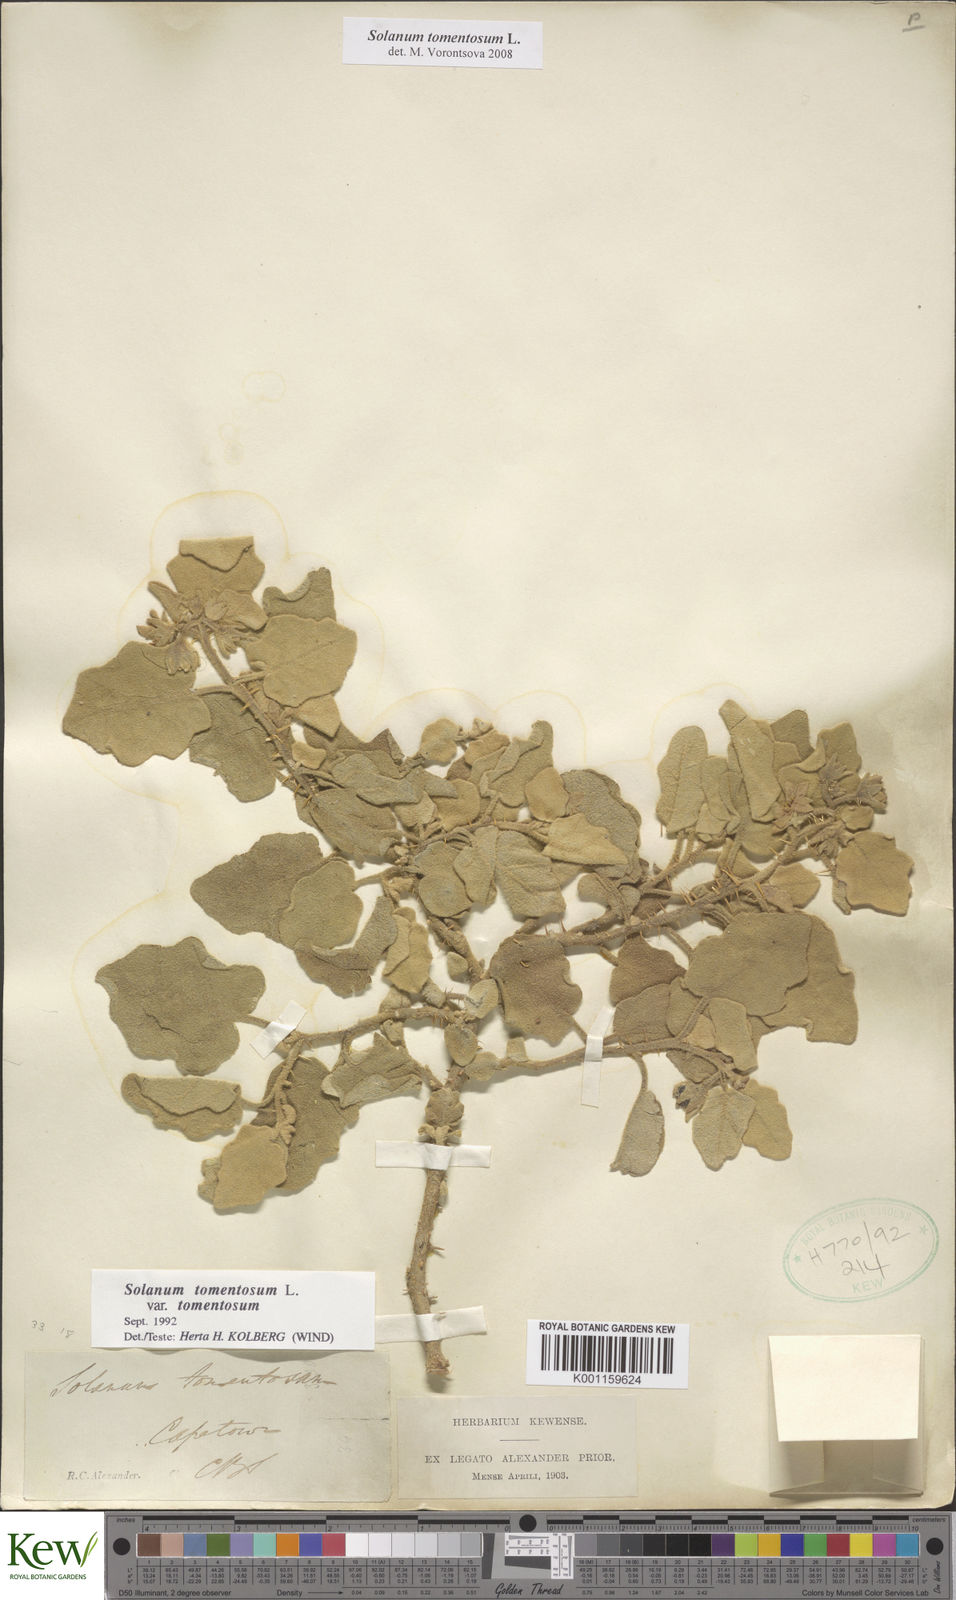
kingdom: Plantae
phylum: Tracheophyta
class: Magnoliopsida
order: Solanales
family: Solanaceae
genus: Solanum
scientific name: Solanum tomentosum
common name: Wild aubergine
